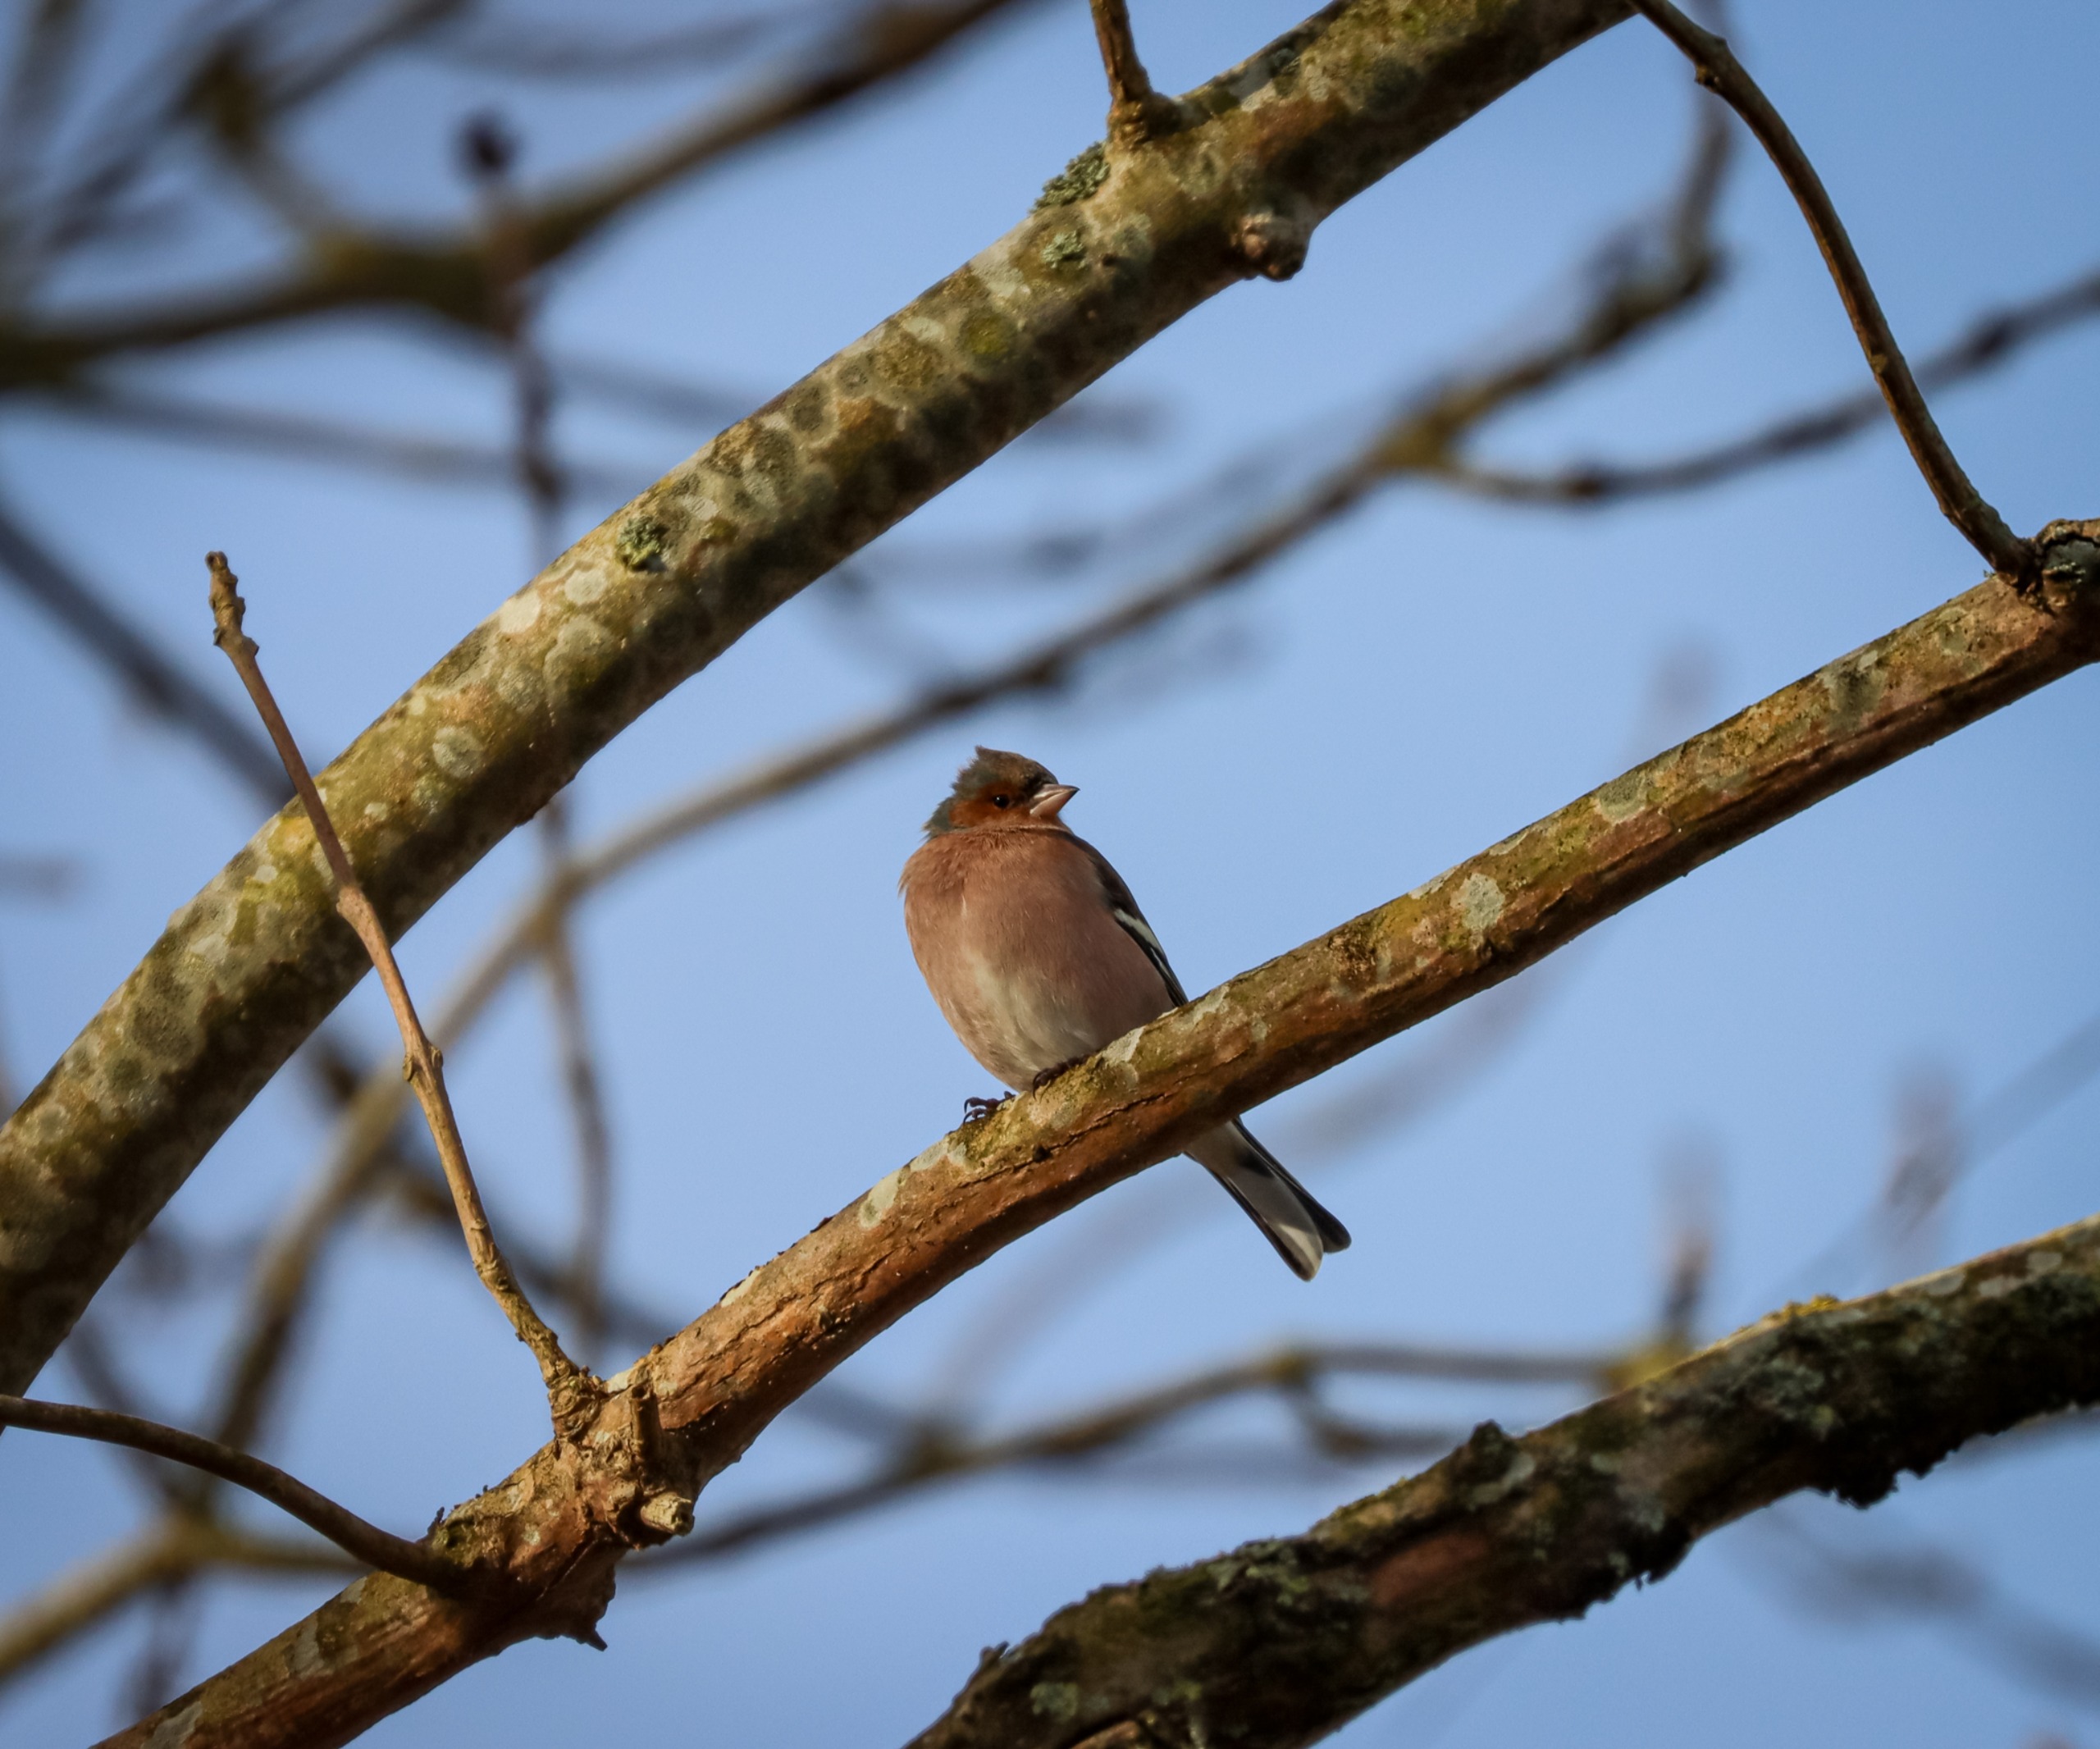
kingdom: Animalia
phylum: Chordata
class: Aves
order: Passeriformes
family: Fringillidae
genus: Fringilla
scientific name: Fringilla coelebs
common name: Bogfinke
